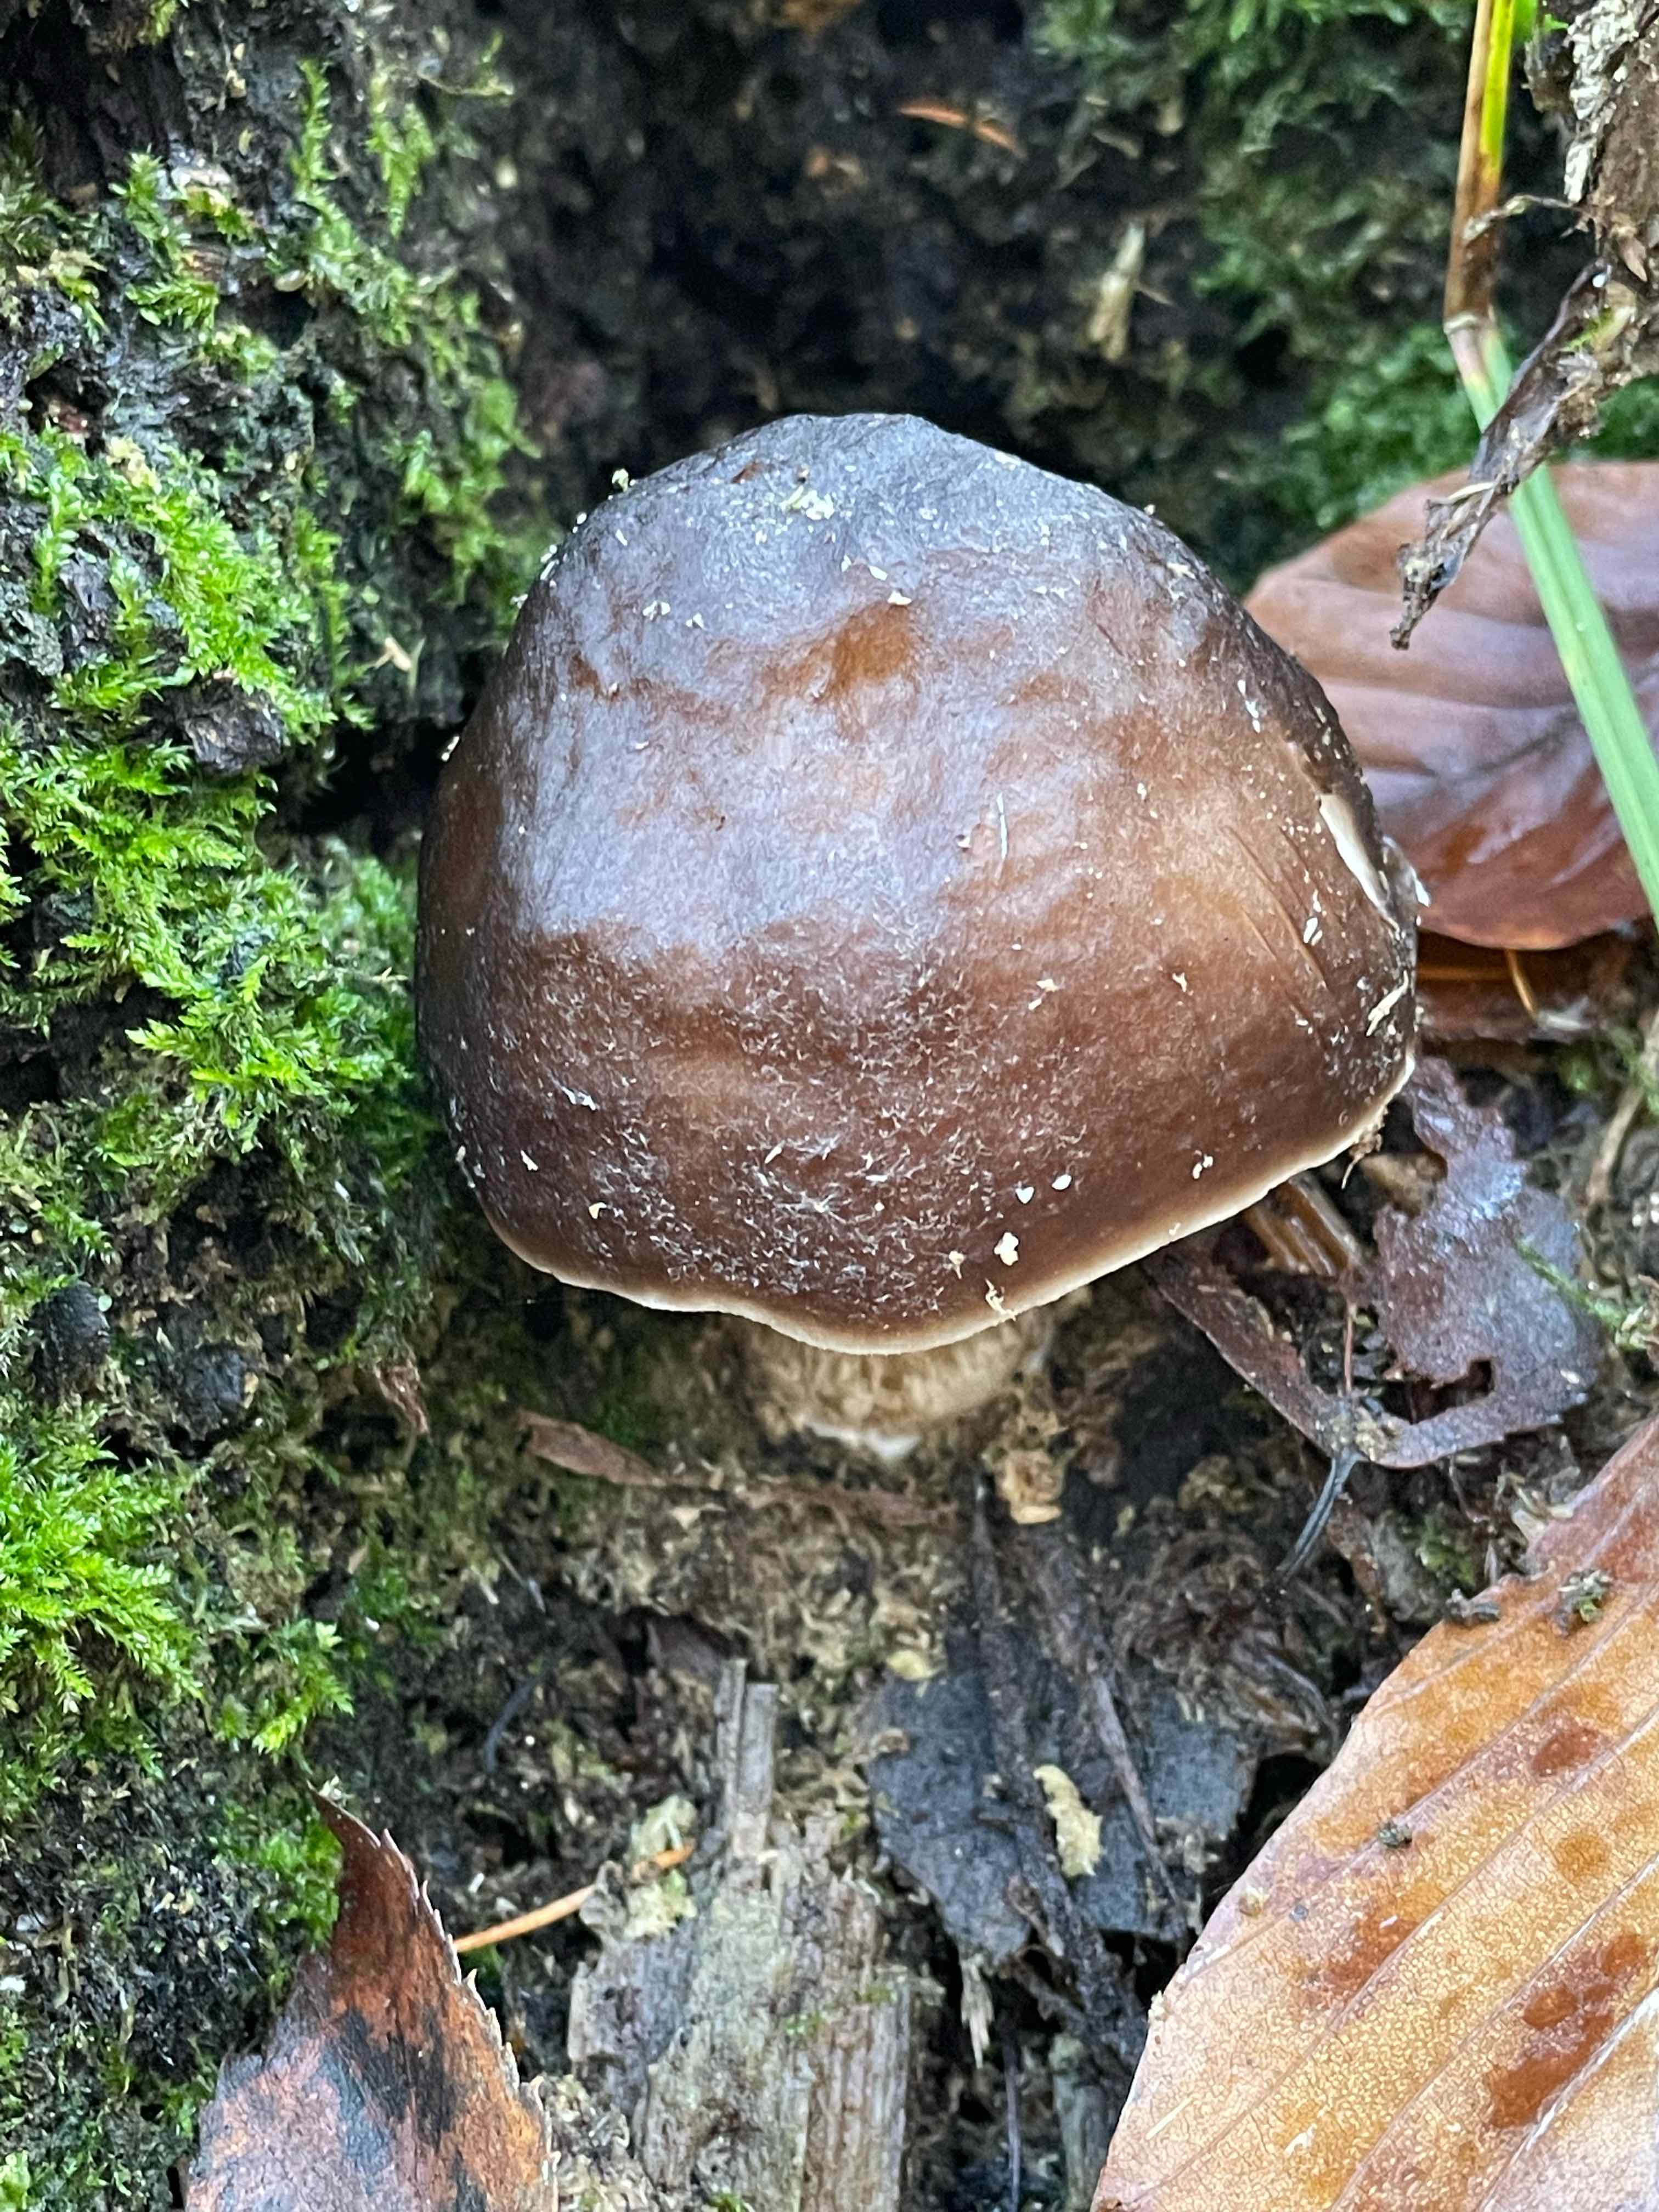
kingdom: Fungi
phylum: Basidiomycota
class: Agaricomycetes
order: Agaricales
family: Pluteaceae
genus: Pluteus
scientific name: Pluteus cervinus
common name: sodfarvet skærmhat
